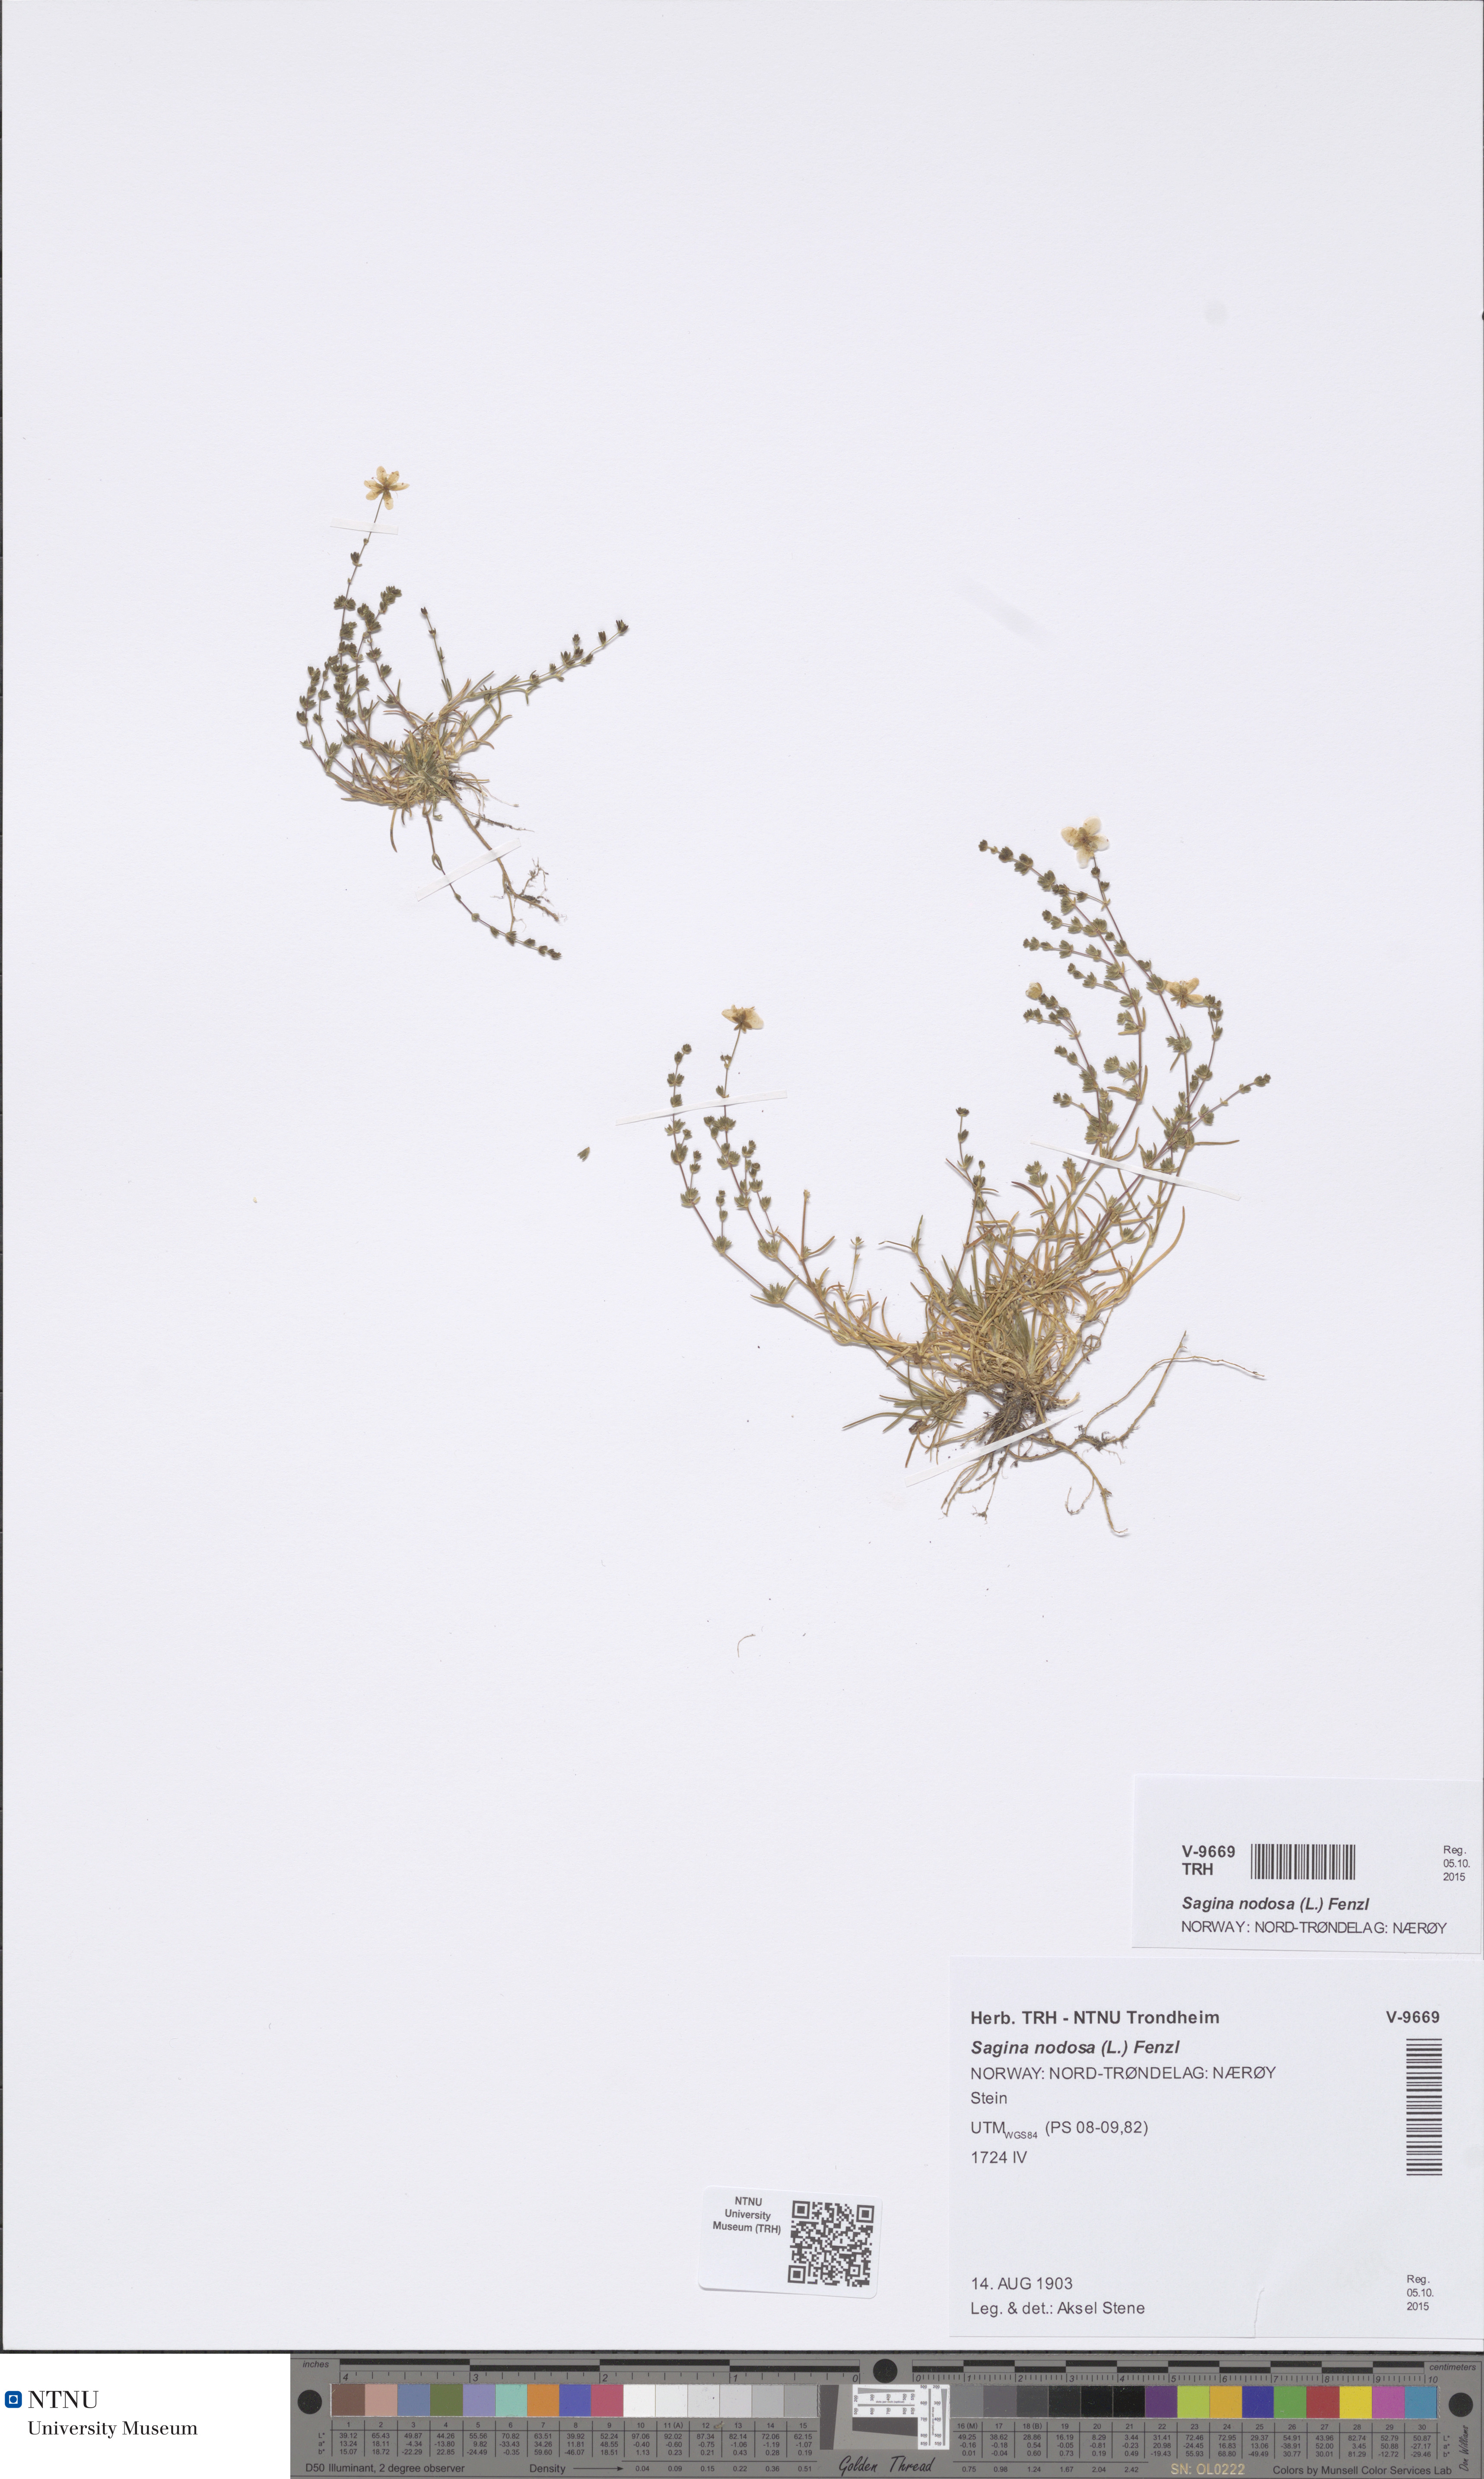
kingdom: Plantae
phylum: Tracheophyta
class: Magnoliopsida
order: Caryophyllales
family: Caryophyllaceae
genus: Sagina
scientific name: Sagina nodosa
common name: Knotted pearlwort
